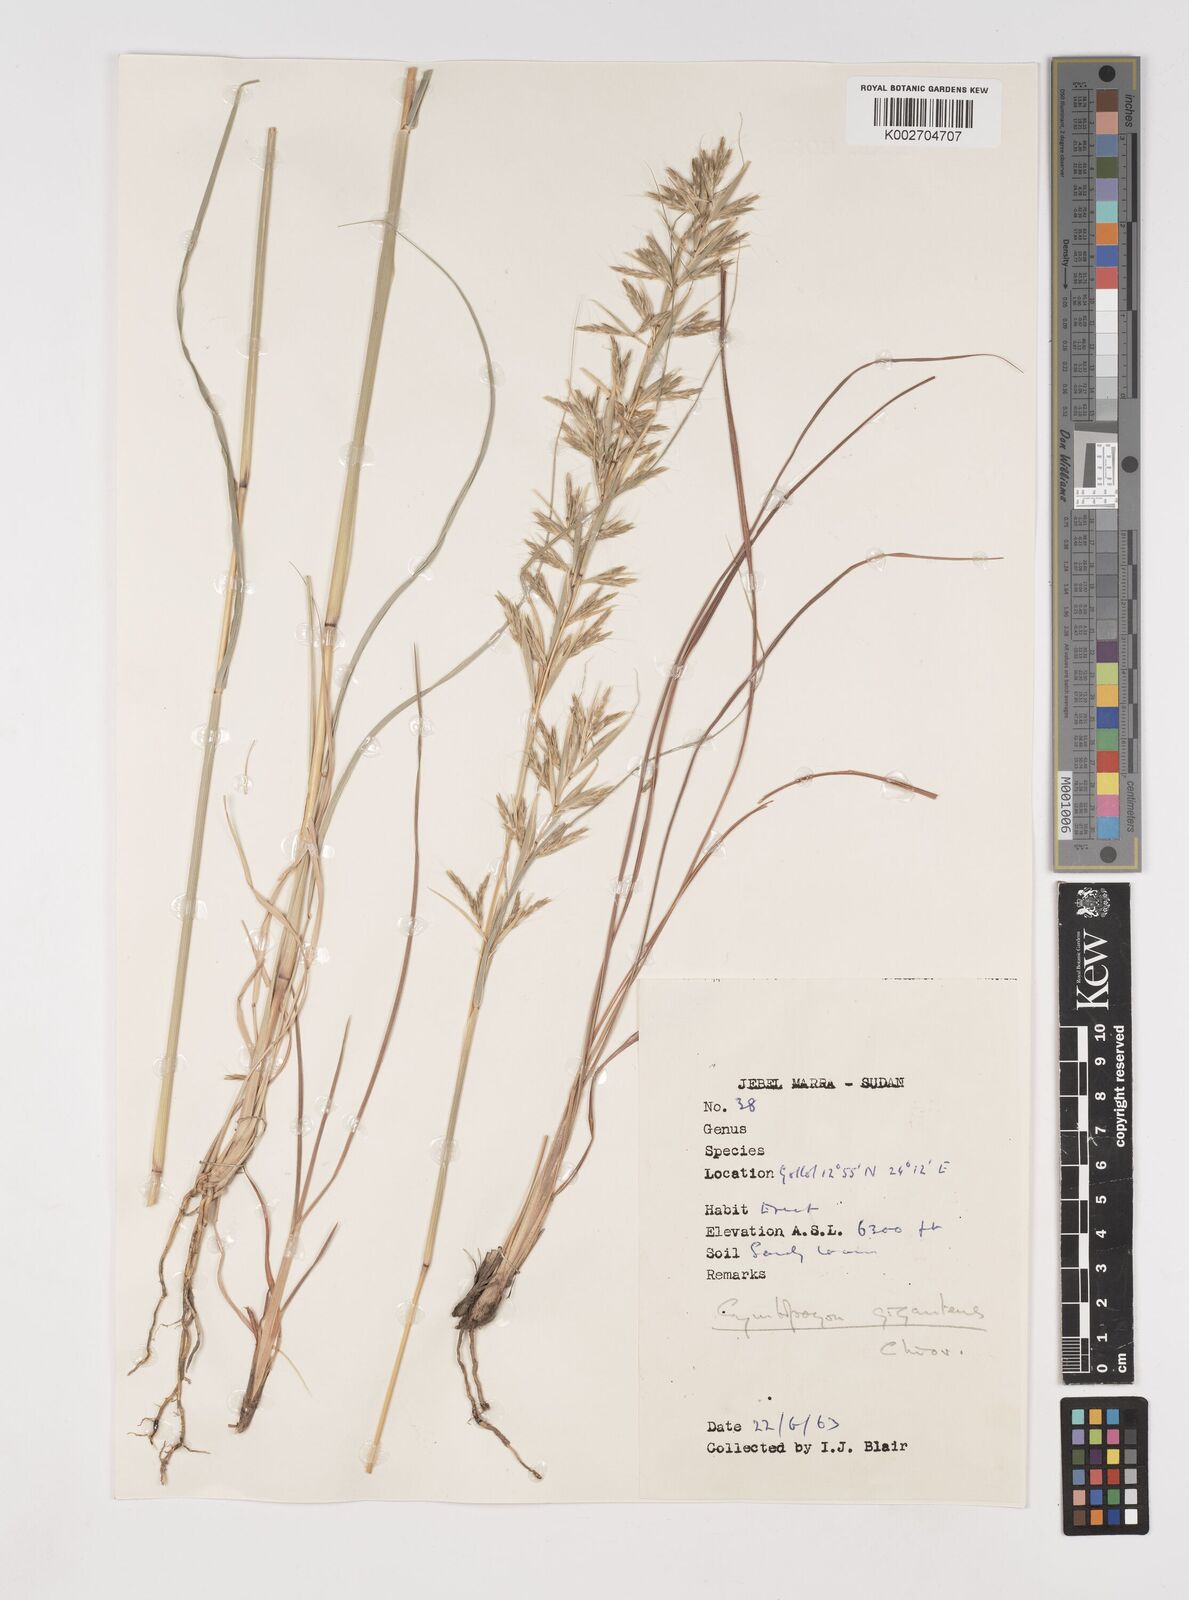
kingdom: Plantae
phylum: Tracheophyta
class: Liliopsida
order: Poales
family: Poaceae
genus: Cymbopogon
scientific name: Cymbopogon
